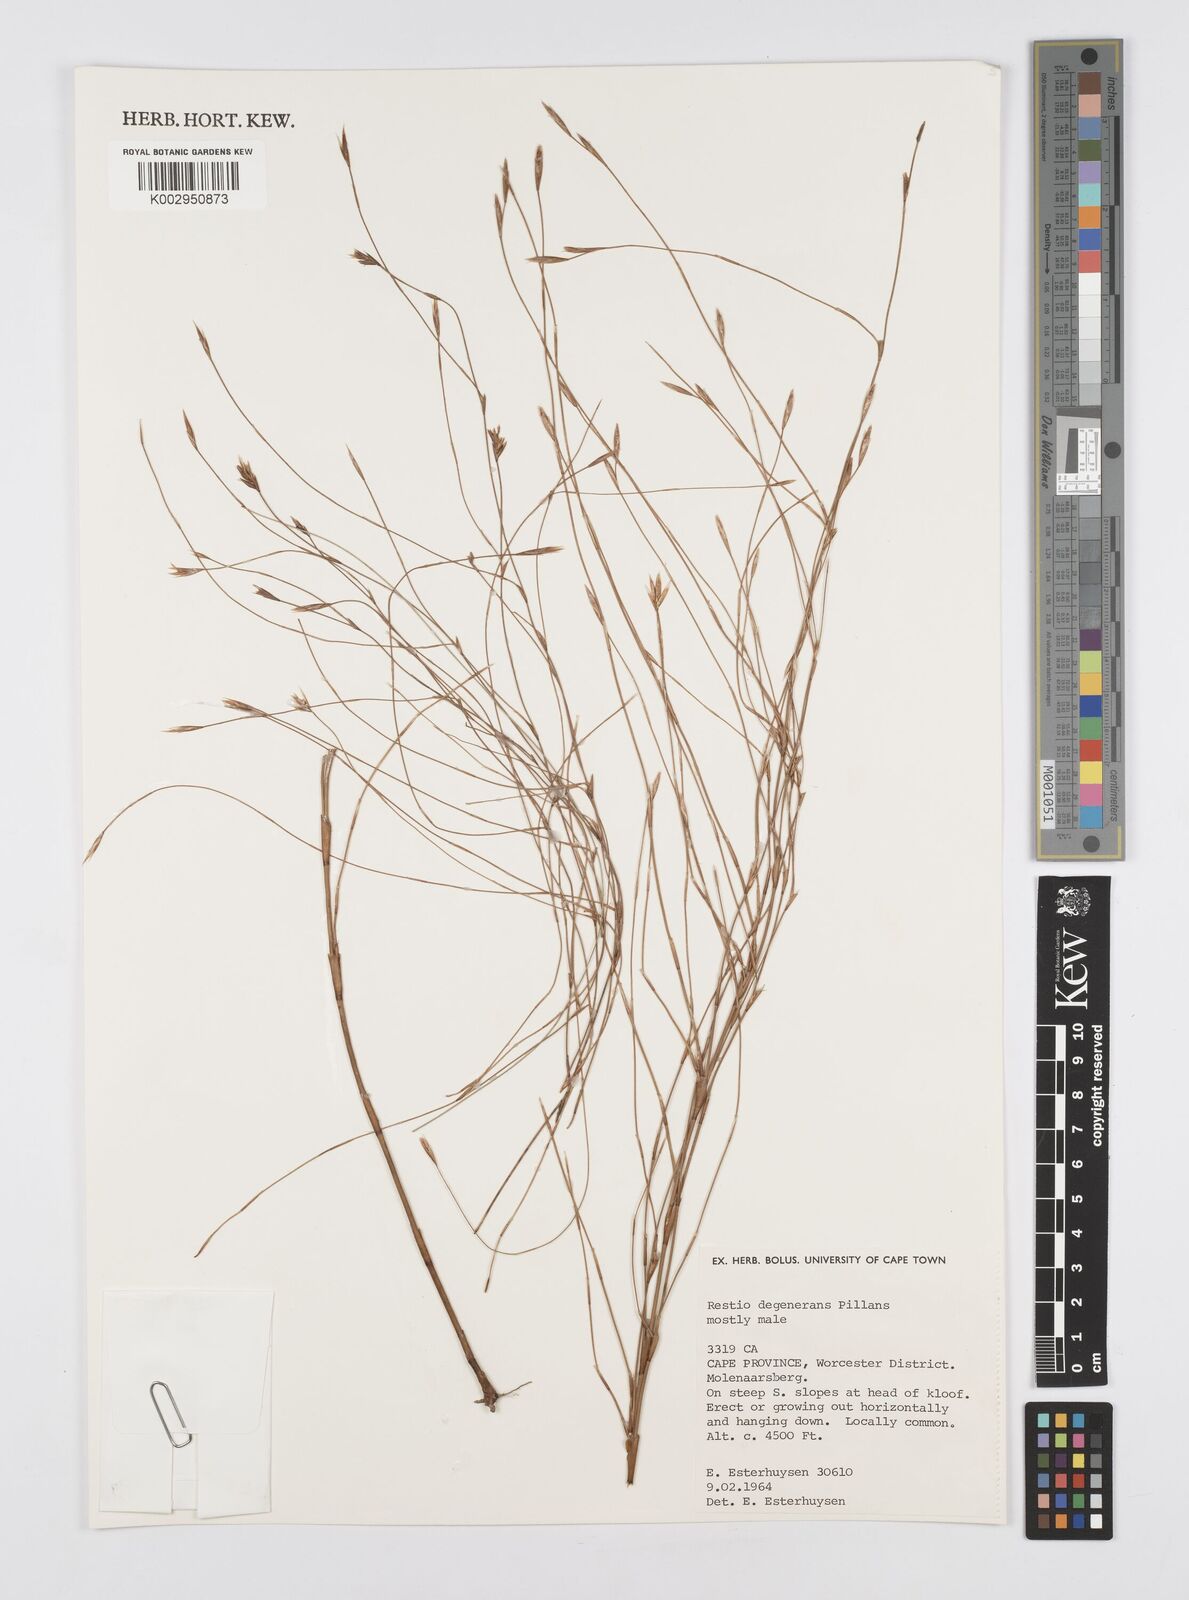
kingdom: Plantae
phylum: Tracheophyta
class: Liliopsida
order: Poales
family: Restionaceae
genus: Restio
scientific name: Restio degenerans
